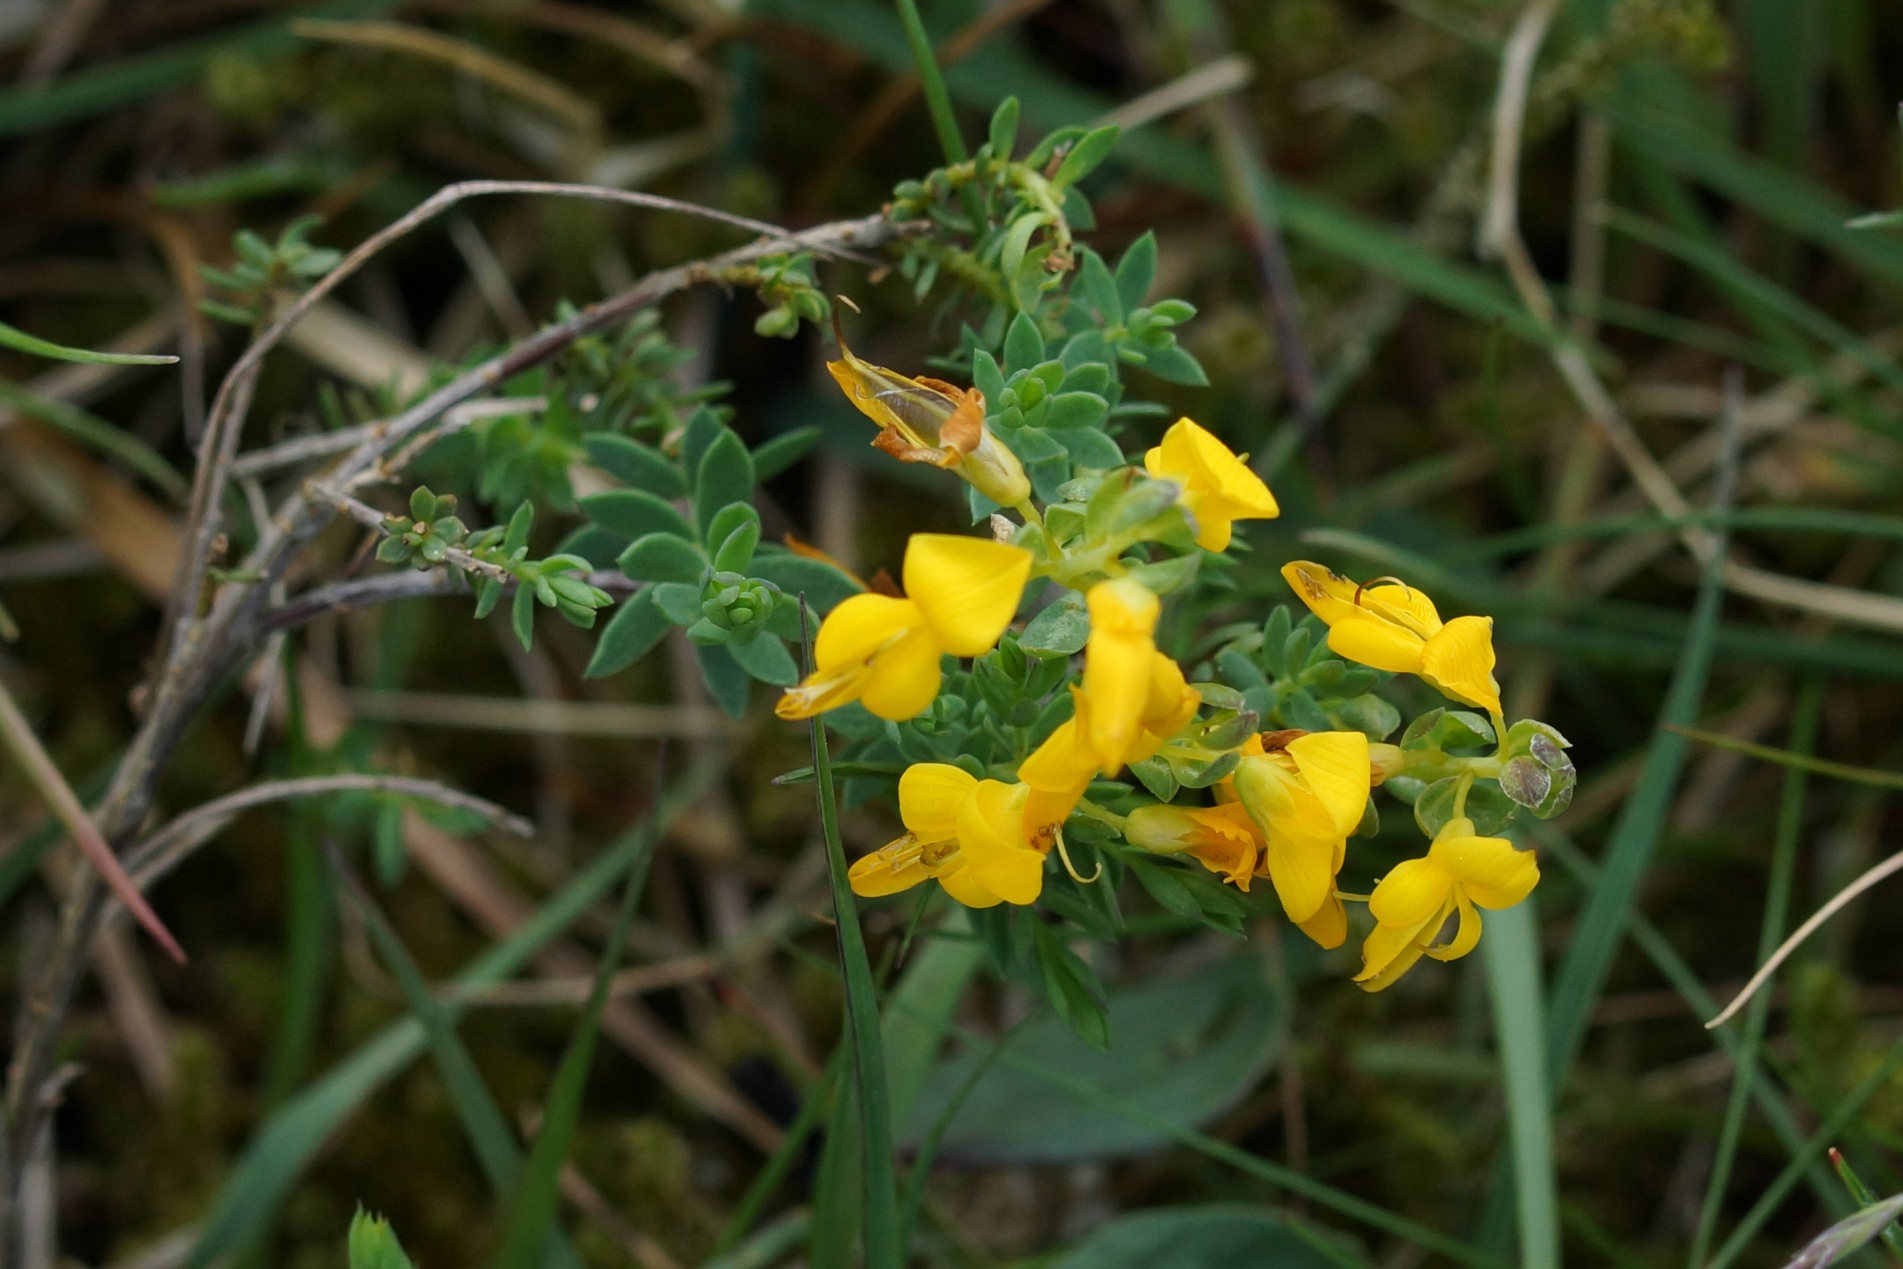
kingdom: Plantae
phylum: Tracheophyta
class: Magnoliopsida
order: Fabales
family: Fabaceae
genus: Genista
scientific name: Genista anglica
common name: Engelsk visse
